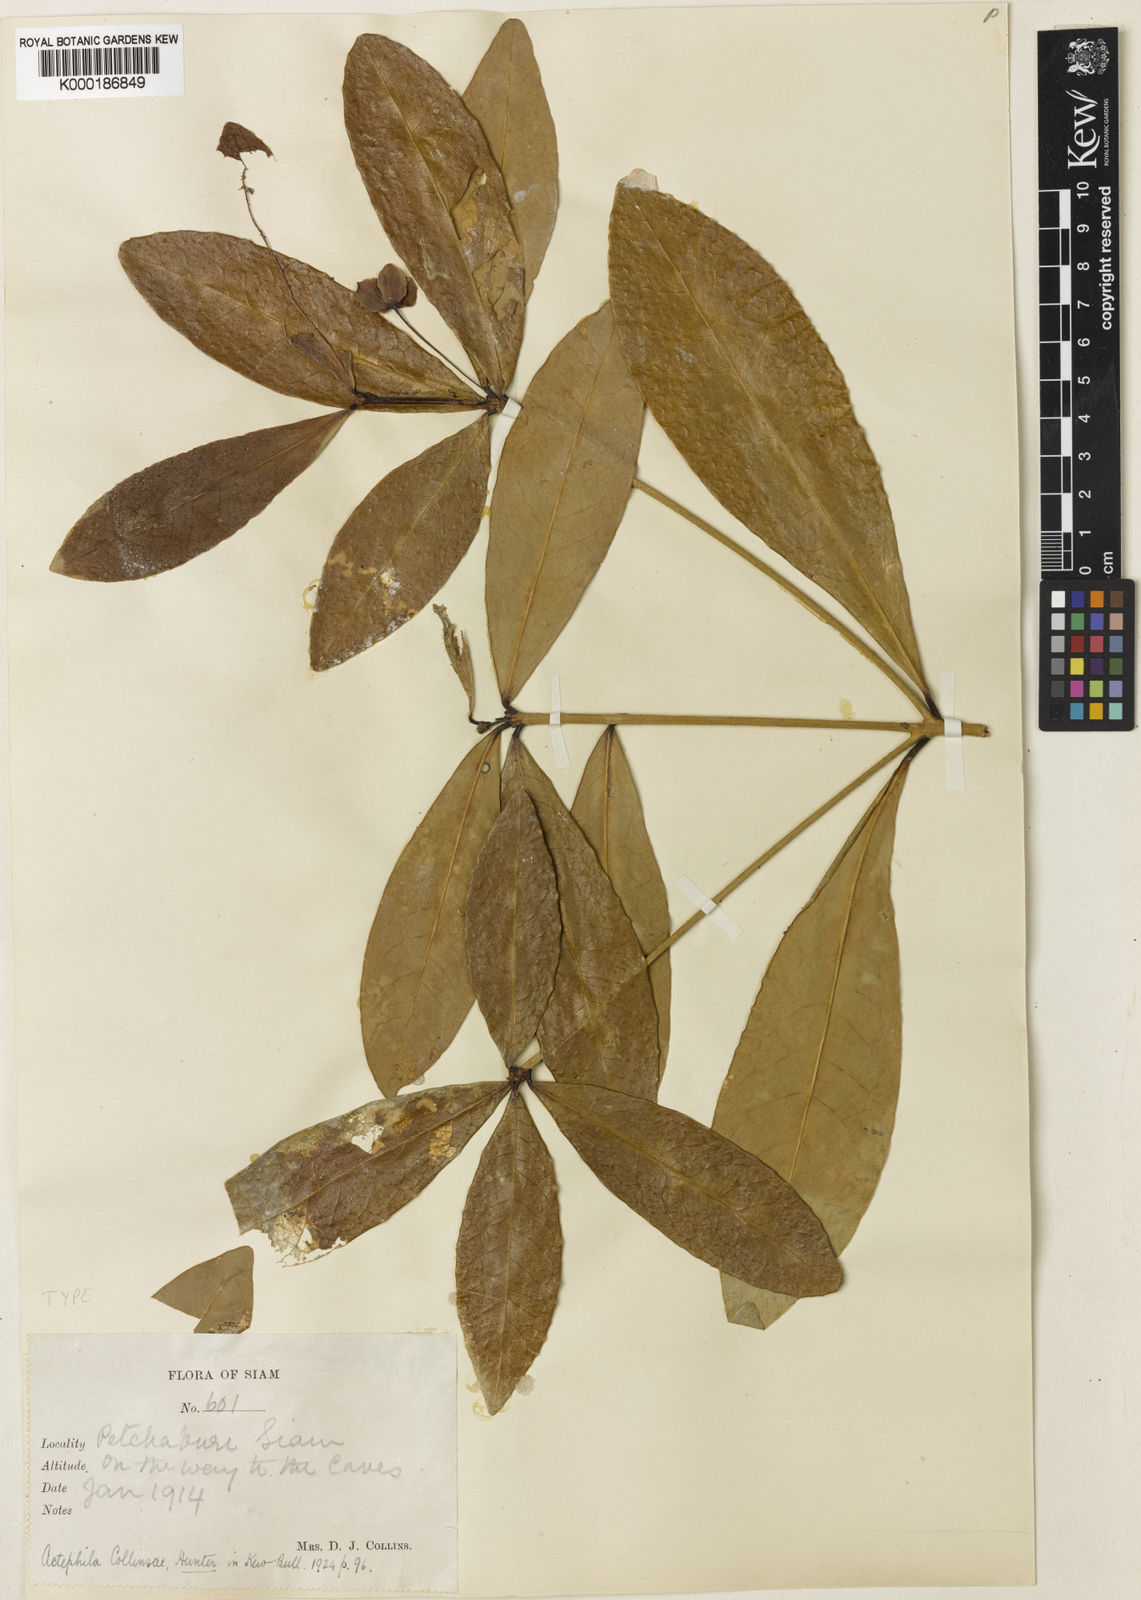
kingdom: Plantae
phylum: Tracheophyta
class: Magnoliopsida
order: Malpighiales
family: Phyllanthaceae
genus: Actephila
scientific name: Actephila collinsiae
